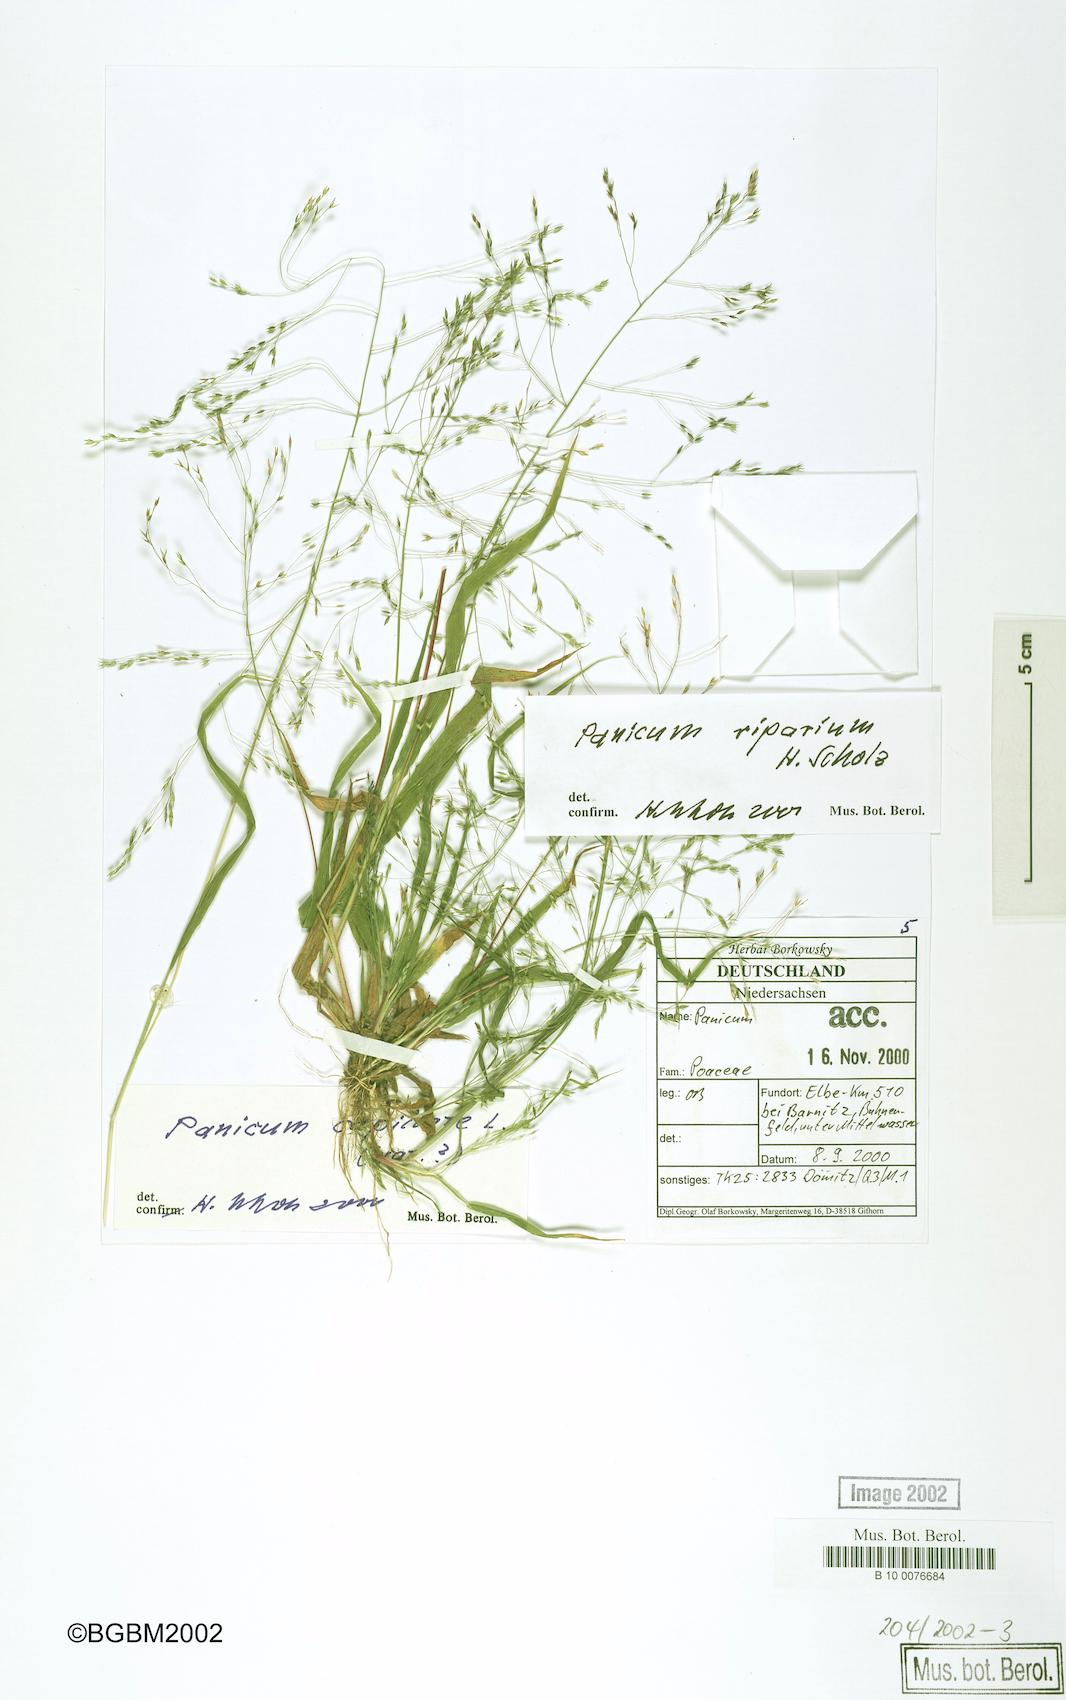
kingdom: Plantae
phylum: Tracheophyta
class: Liliopsida
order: Poales
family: Poaceae
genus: Panicum
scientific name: Panicum capillare
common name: Witch-grass
